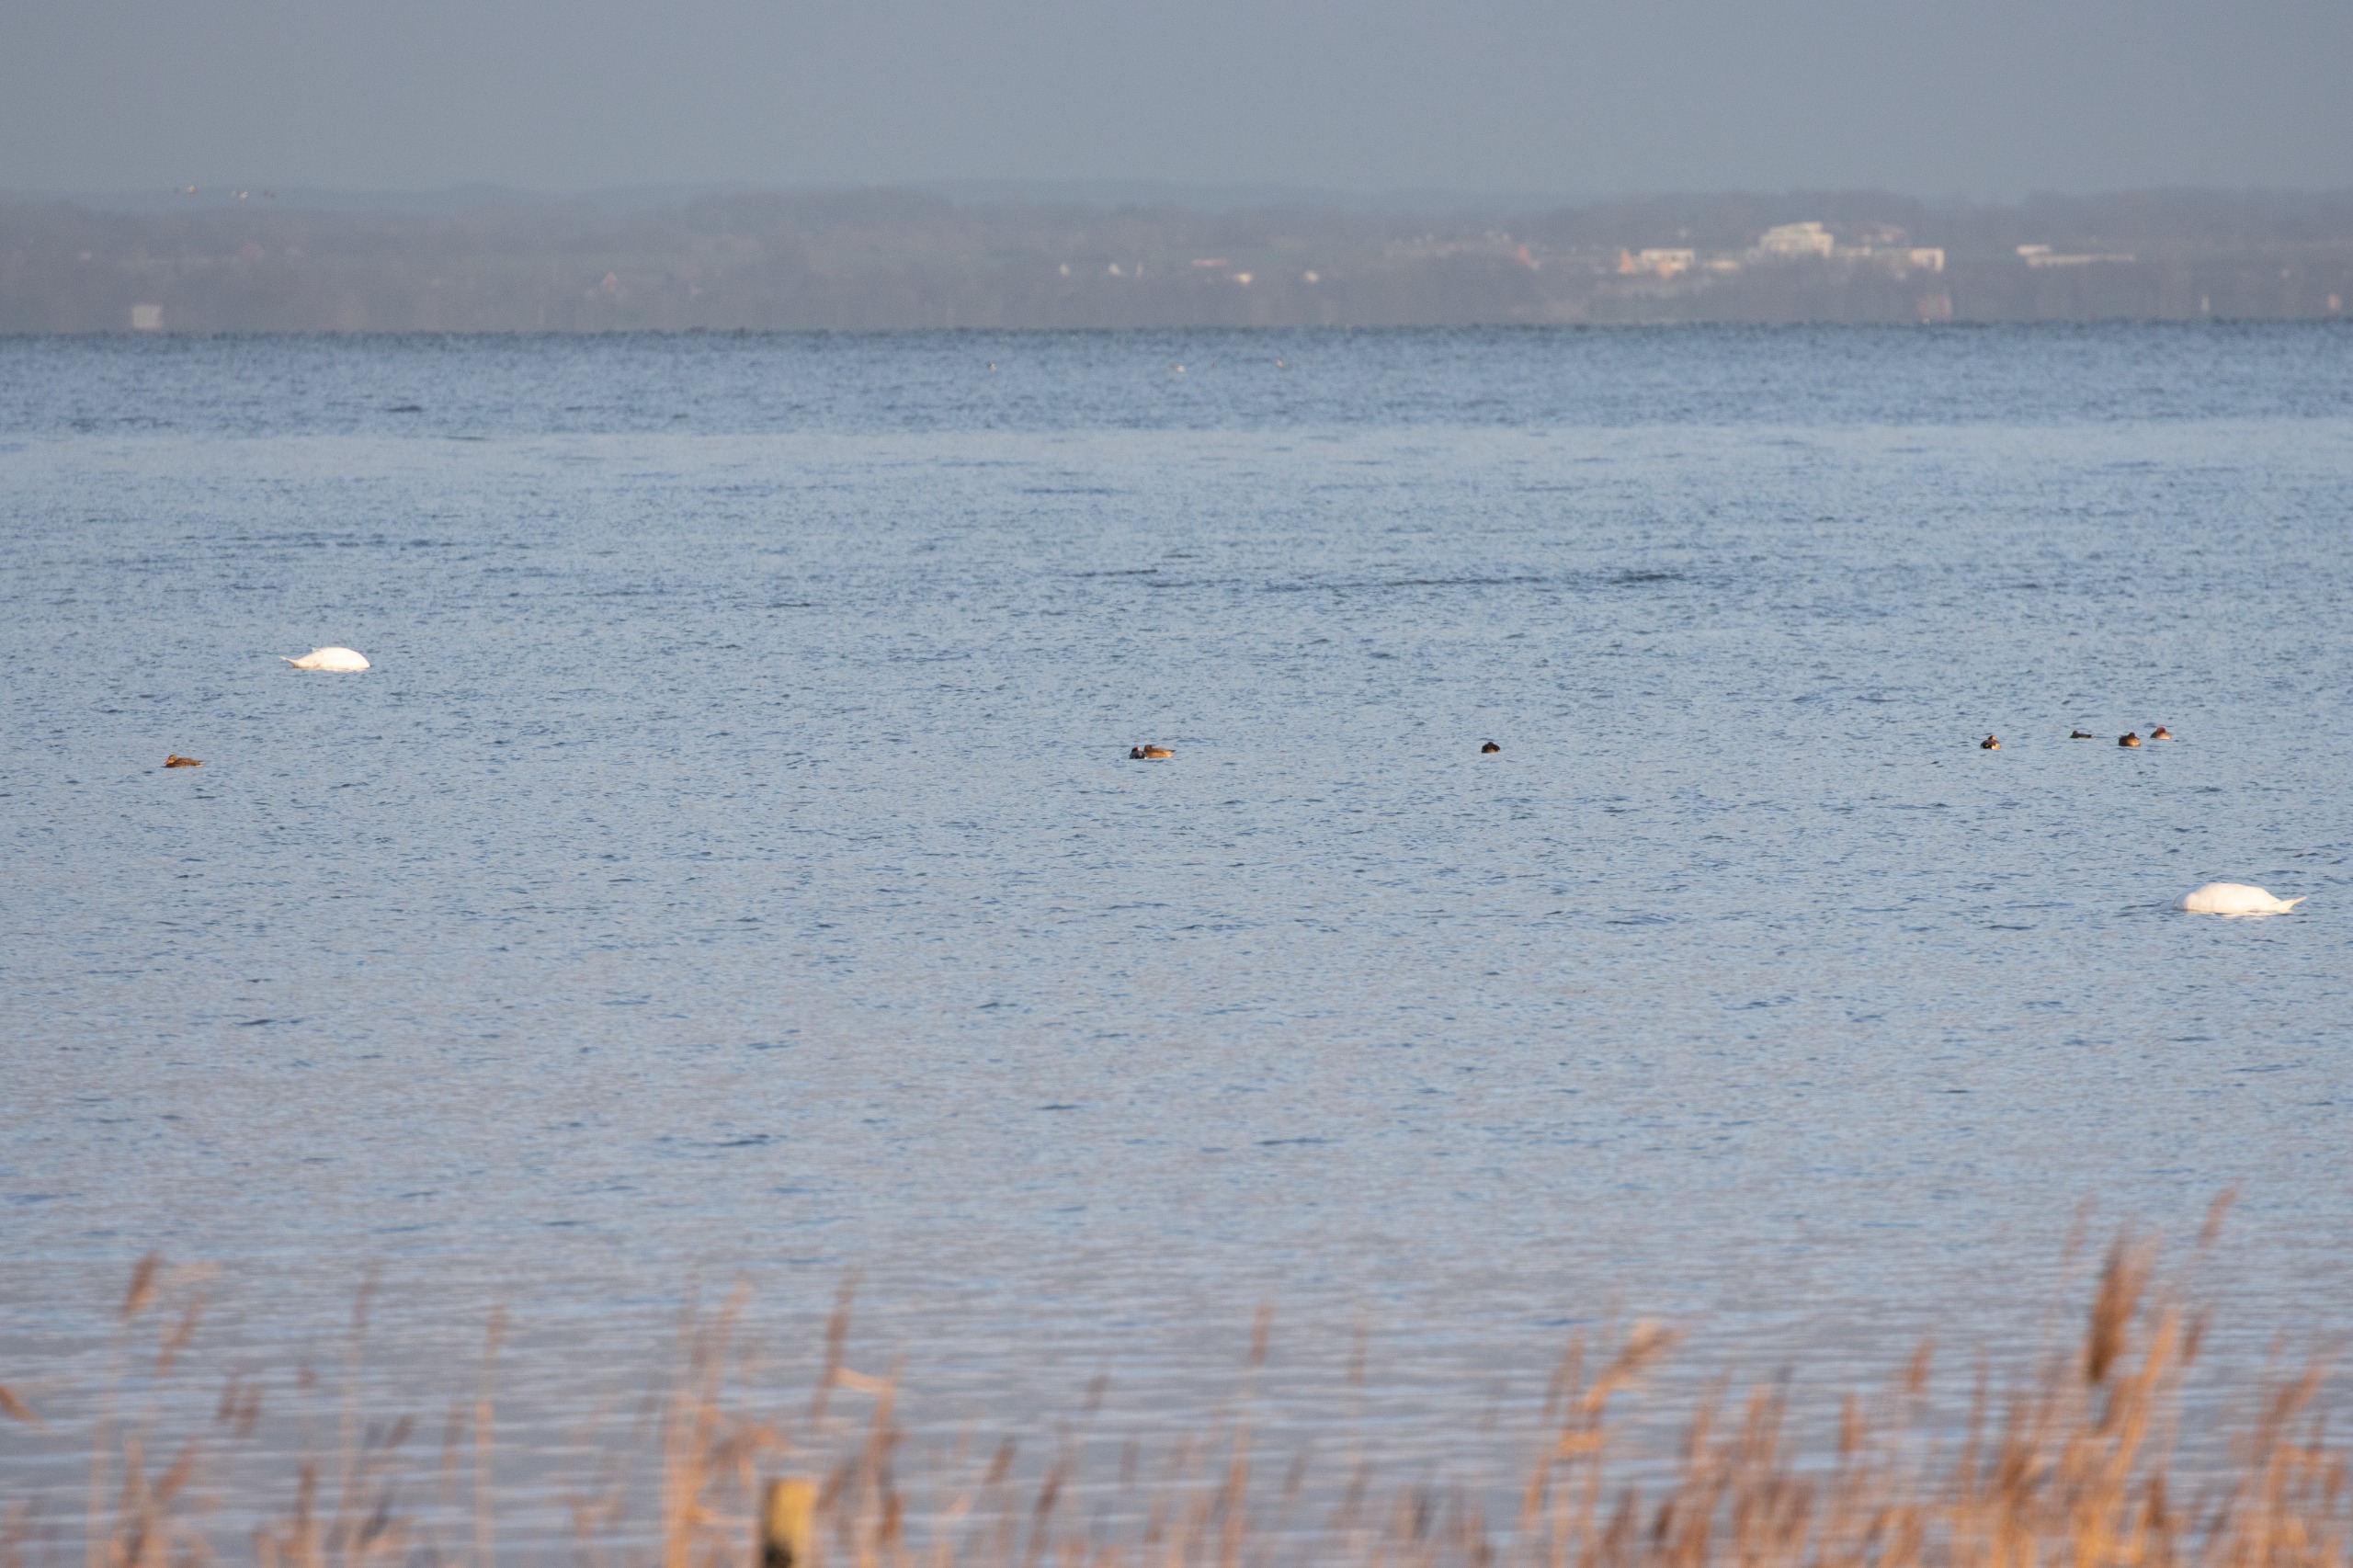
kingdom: Animalia
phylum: Chordata
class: Aves
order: Anseriformes
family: Anatidae
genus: Mareca
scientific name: Mareca penelope
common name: Pibeand
